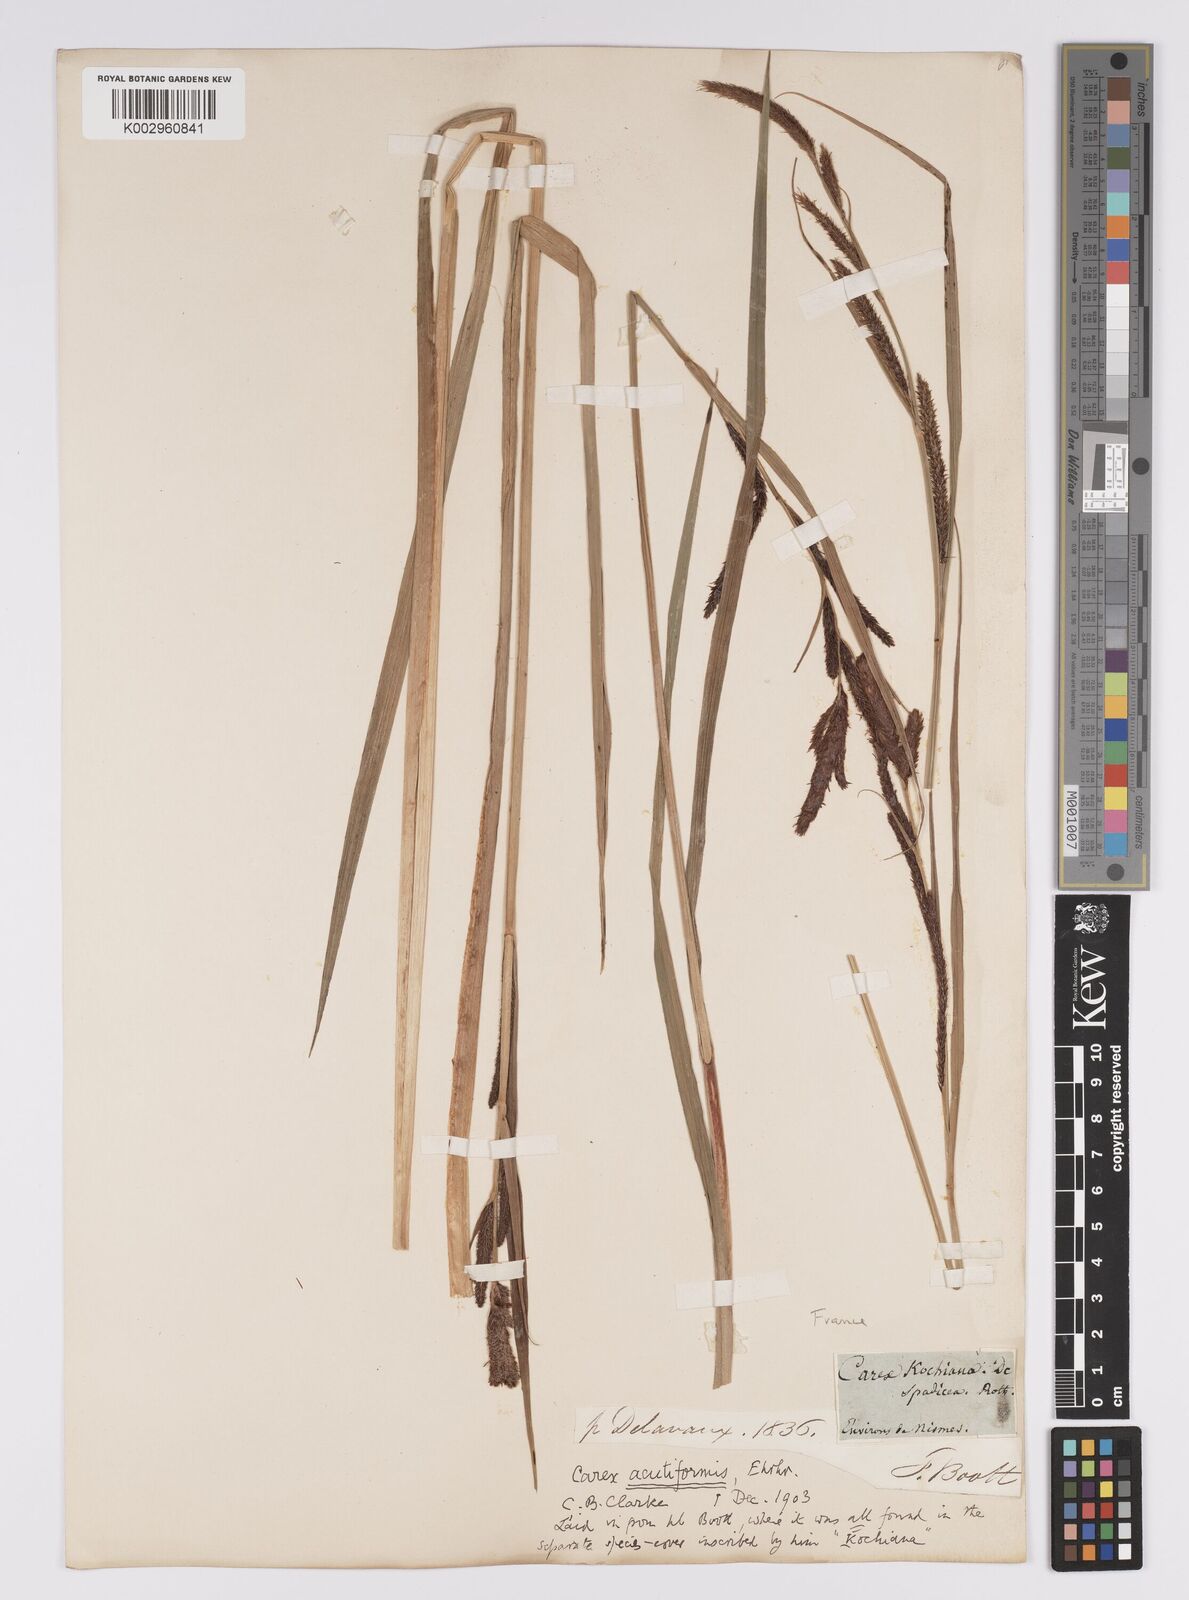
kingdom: Plantae
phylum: Tracheophyta
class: Liliopsida
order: Poales
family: Cyperaceae
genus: Carex
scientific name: Carex acutiformis
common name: Lesser pond-sedge
